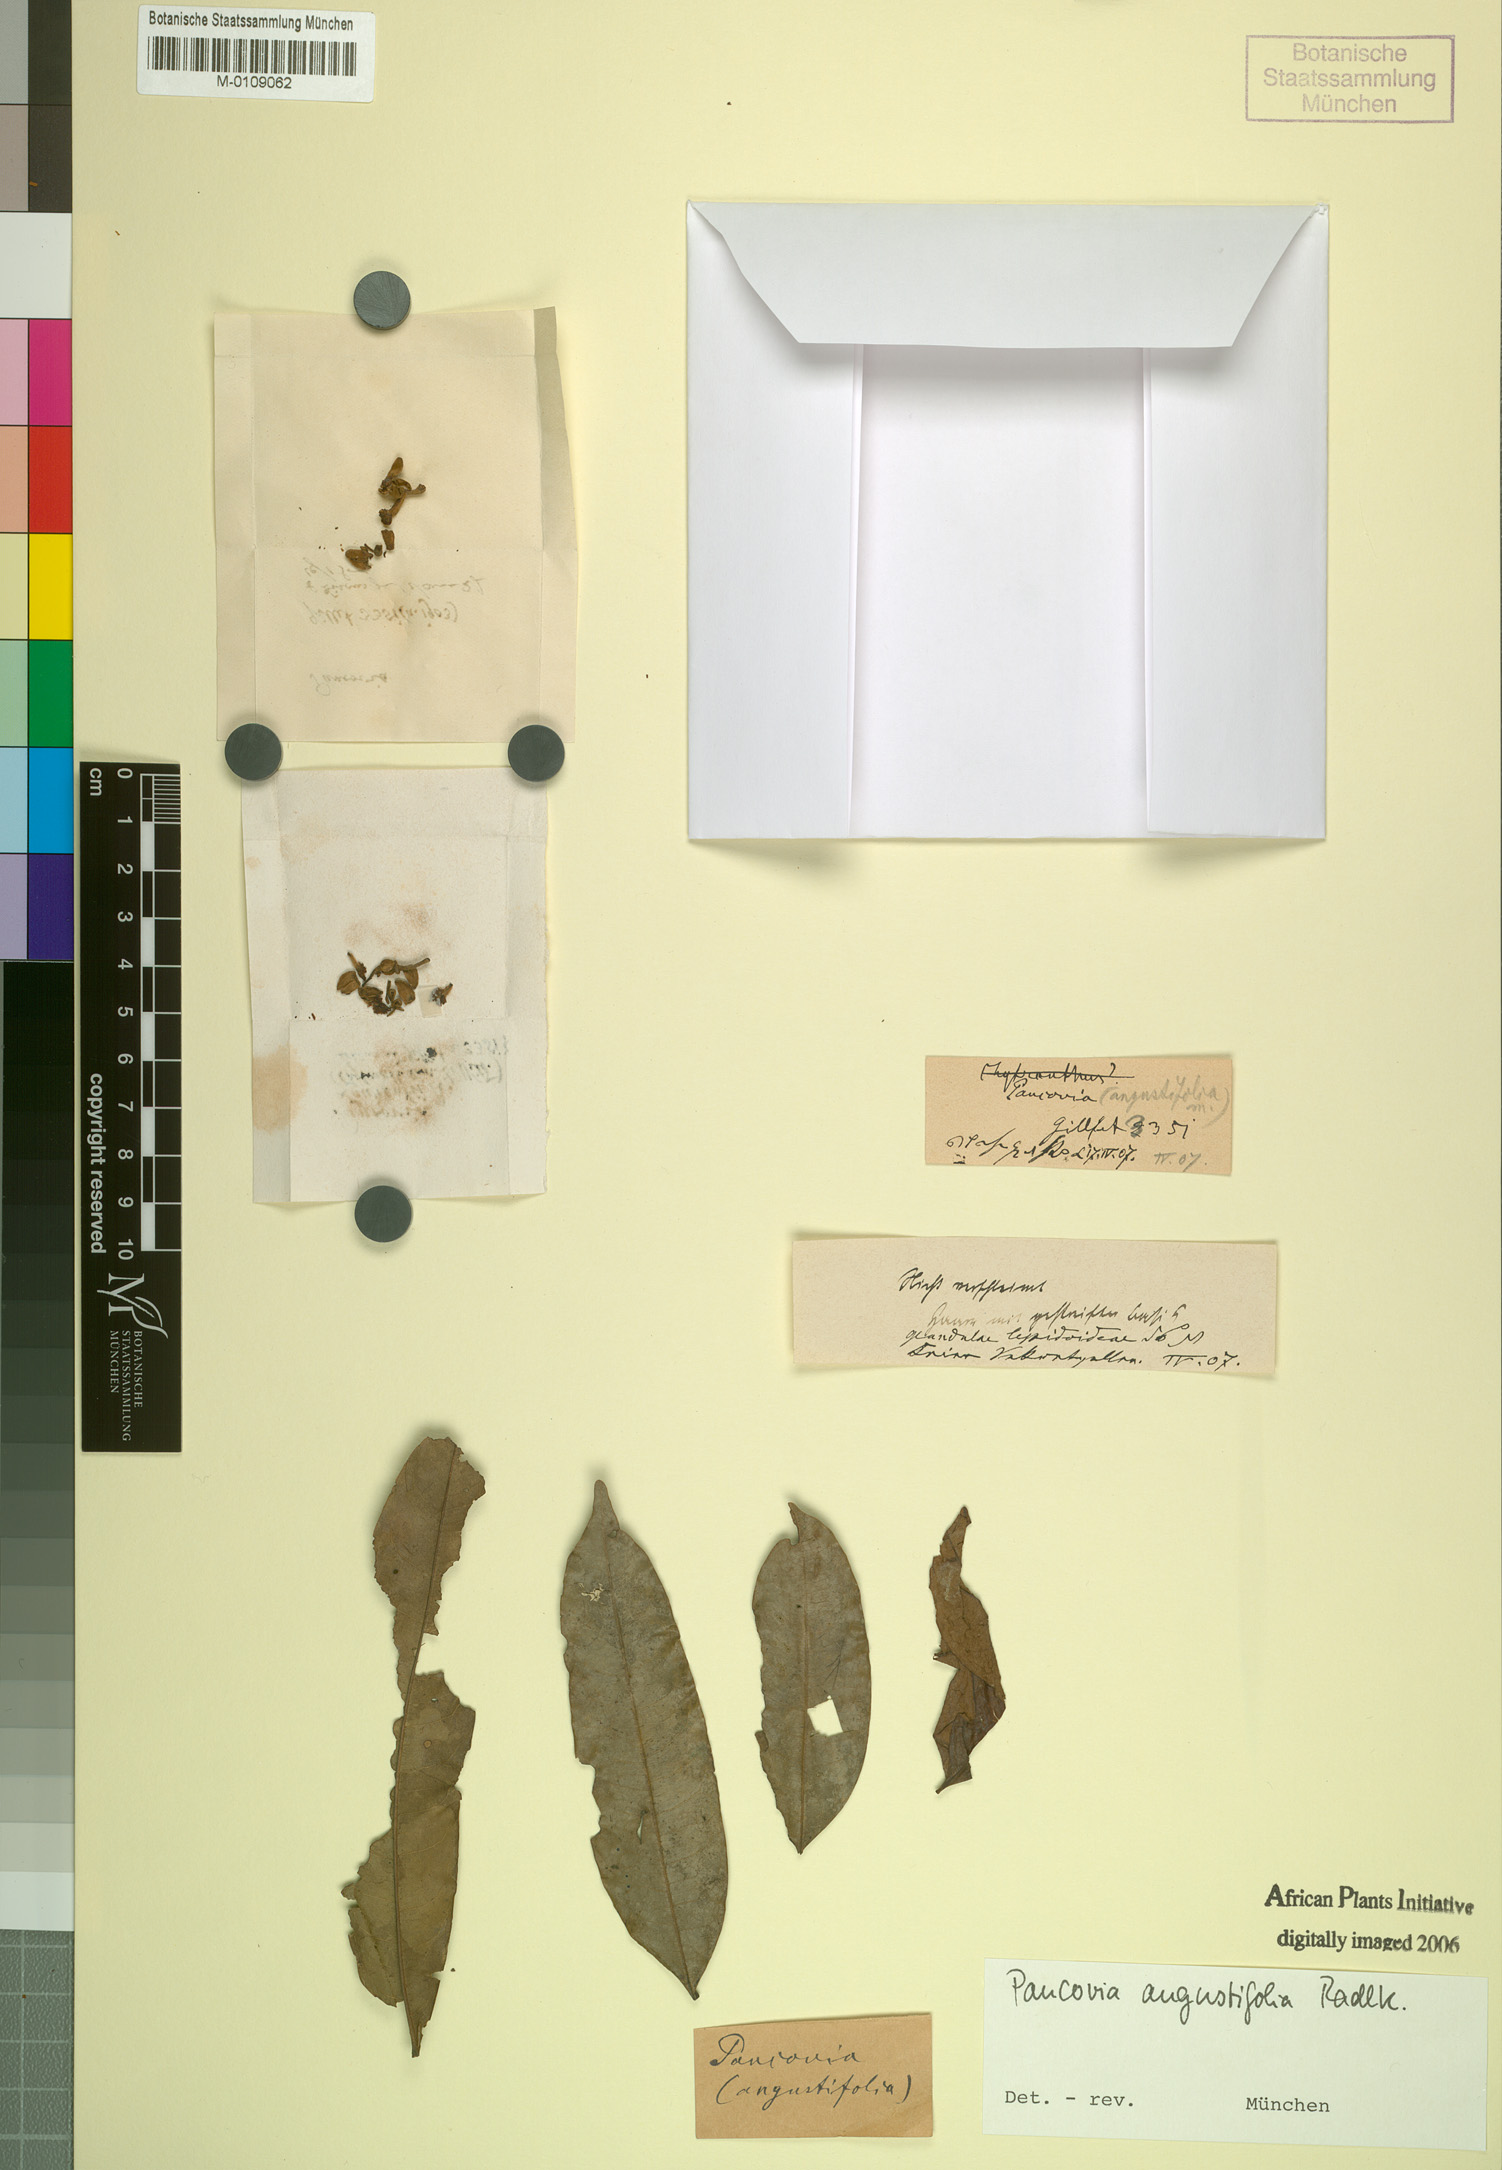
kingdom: Plantae
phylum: Tracheophyta
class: Magnoliopsida
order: Sapindales
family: Sapindaceae
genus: Pancovia
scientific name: Pancovia laurentii
